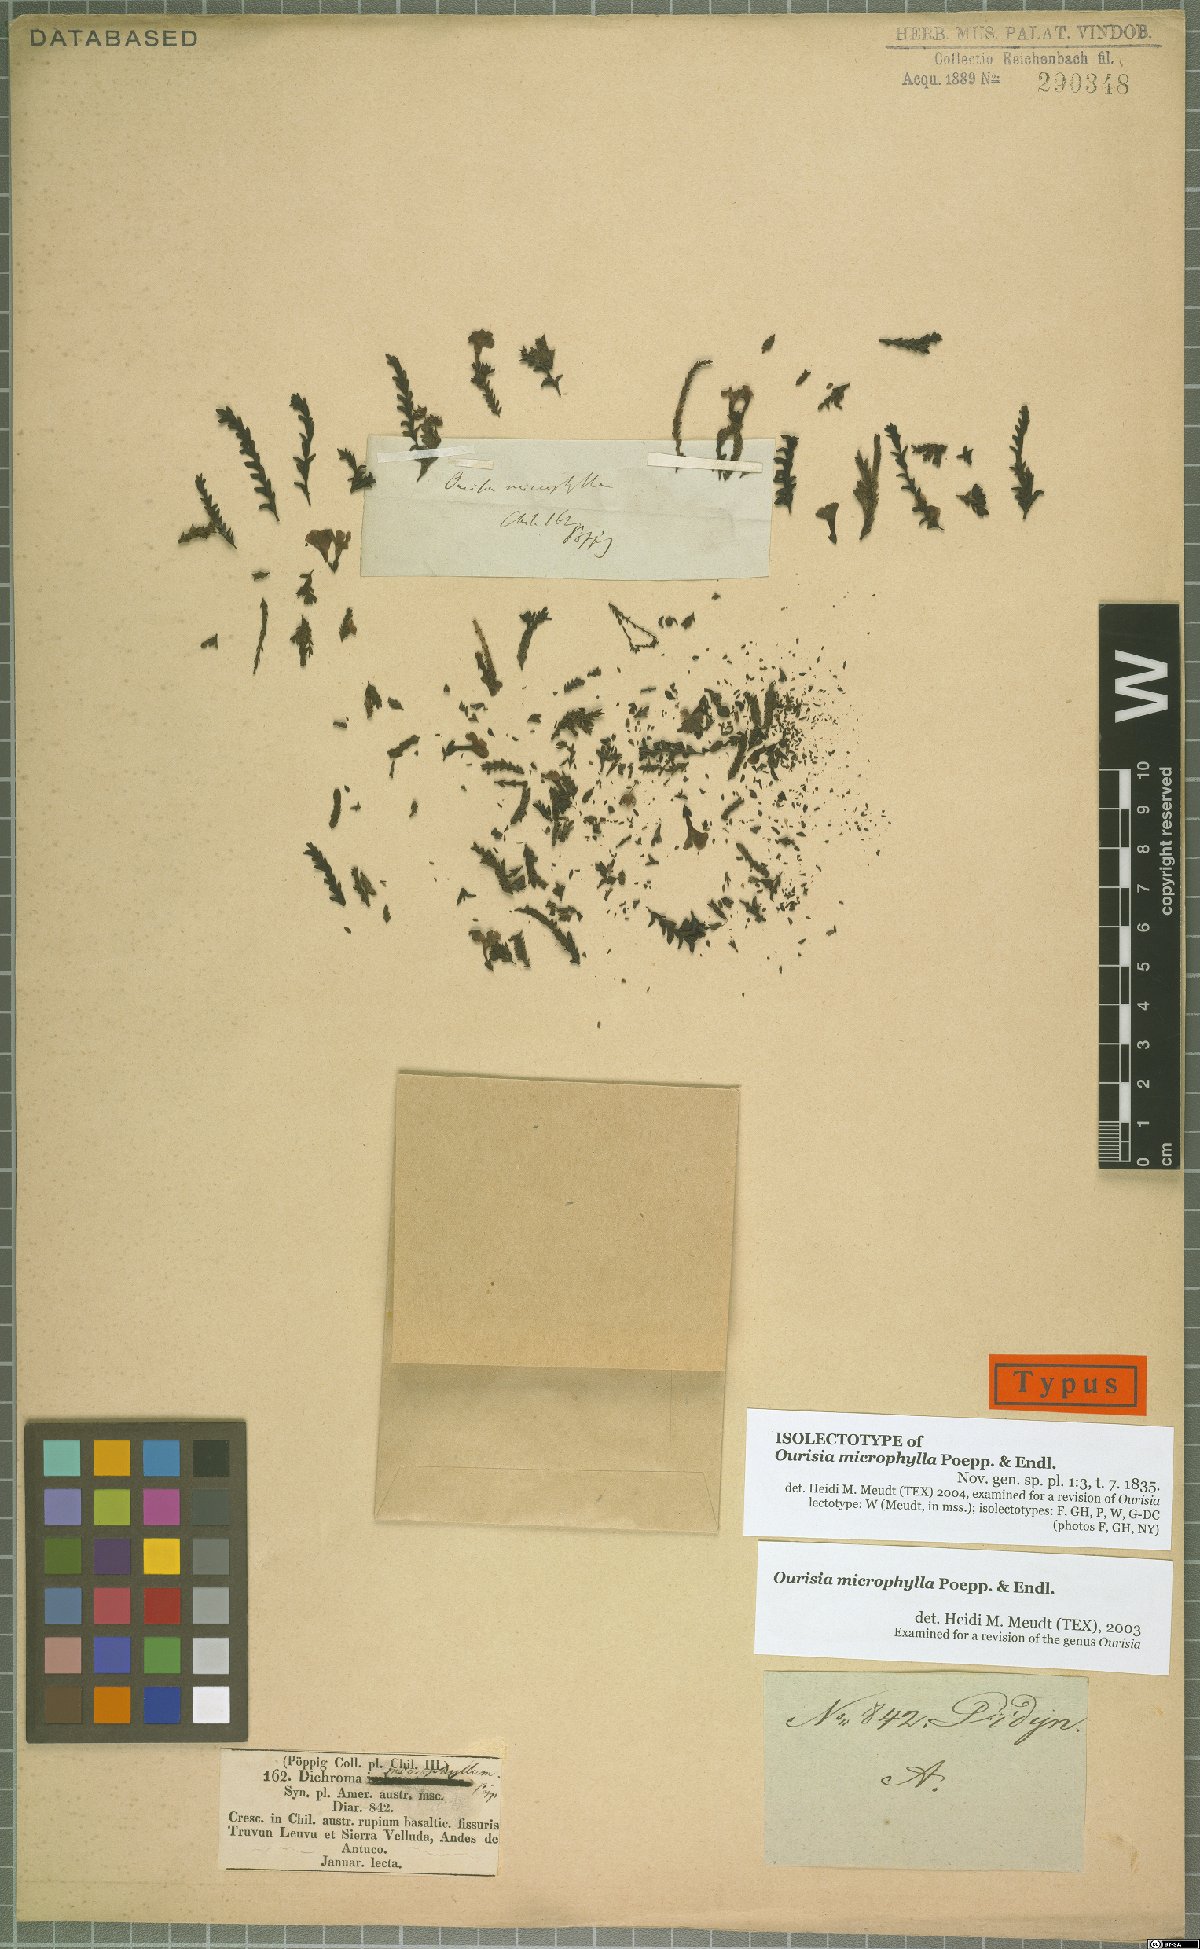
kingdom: Plantae
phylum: Tracheophyta
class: Magnoliopsida
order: Lamiales
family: Plantaginaceae
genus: Ourisia
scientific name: Ourisia microphylla
